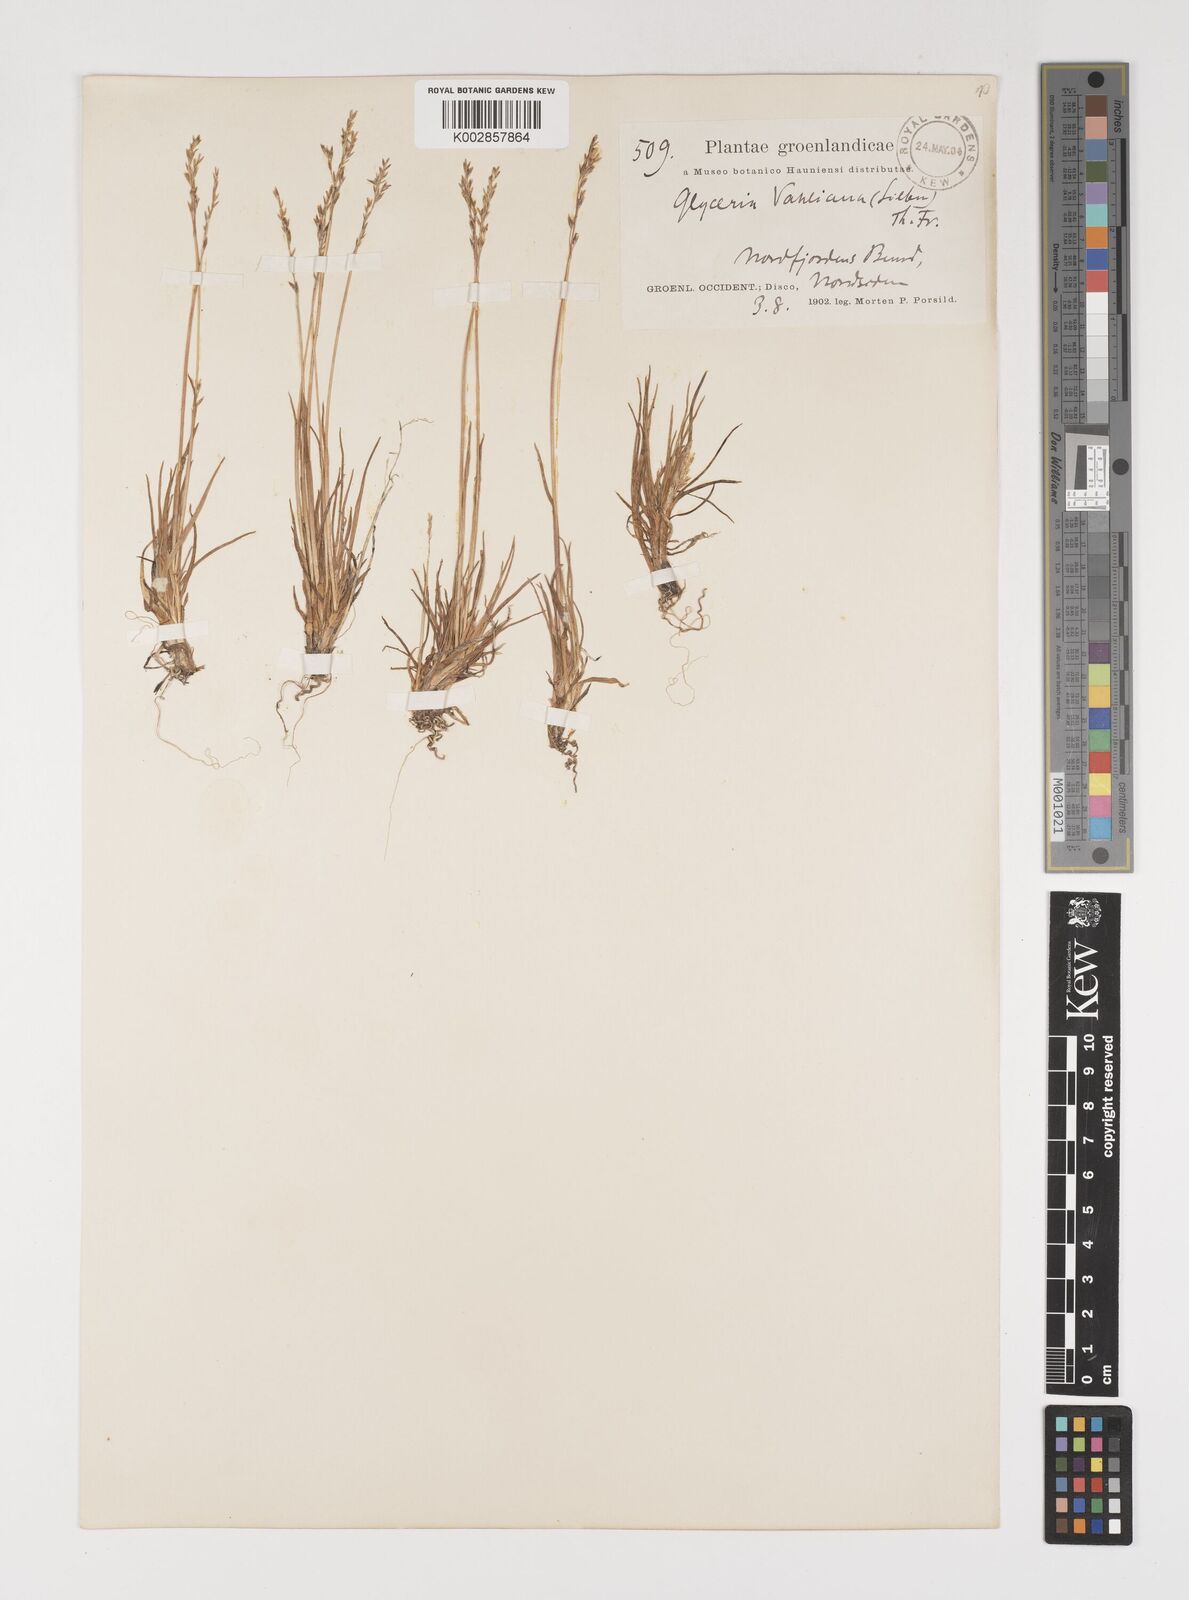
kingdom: Plantae
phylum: Tracheophyta
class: Liliopsida
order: Poales
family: Poaceae
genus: Puccinellia
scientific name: Puccinellia vahliana
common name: Vahl's alkaligrass
